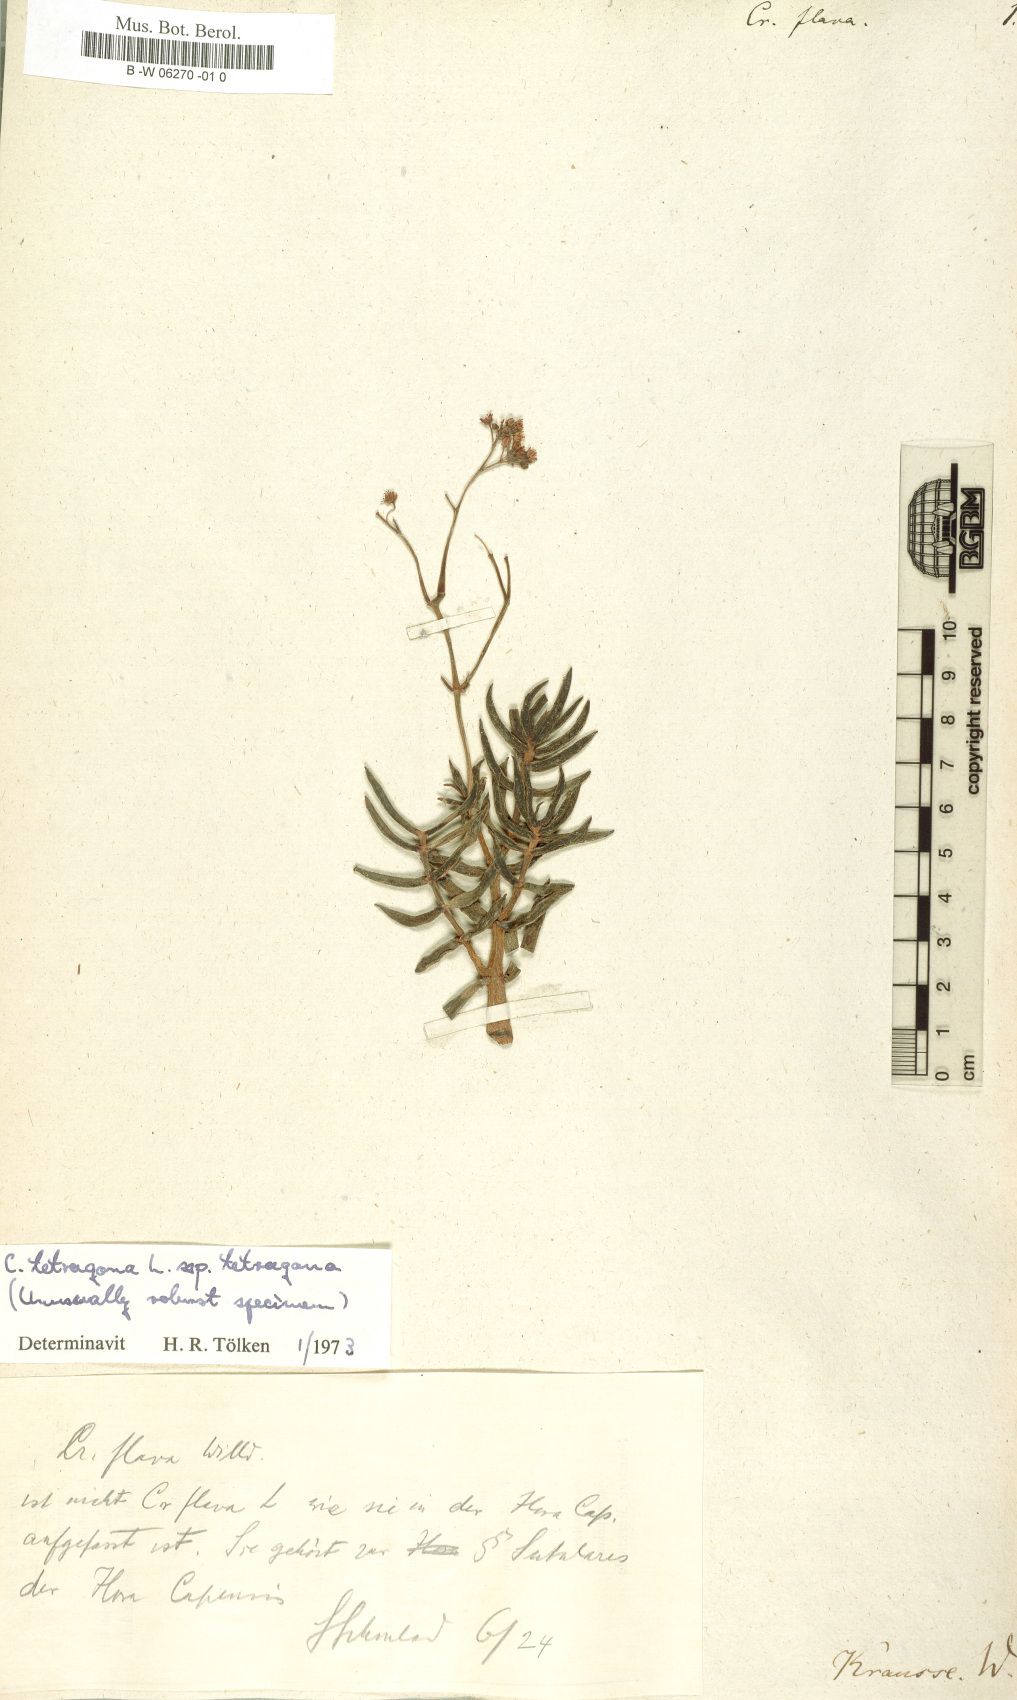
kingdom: Plantae
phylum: Tracheophyta
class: Magnoliopsida
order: Saxifragales
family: Crassulaceae
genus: Crassula
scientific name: Crassula flava
